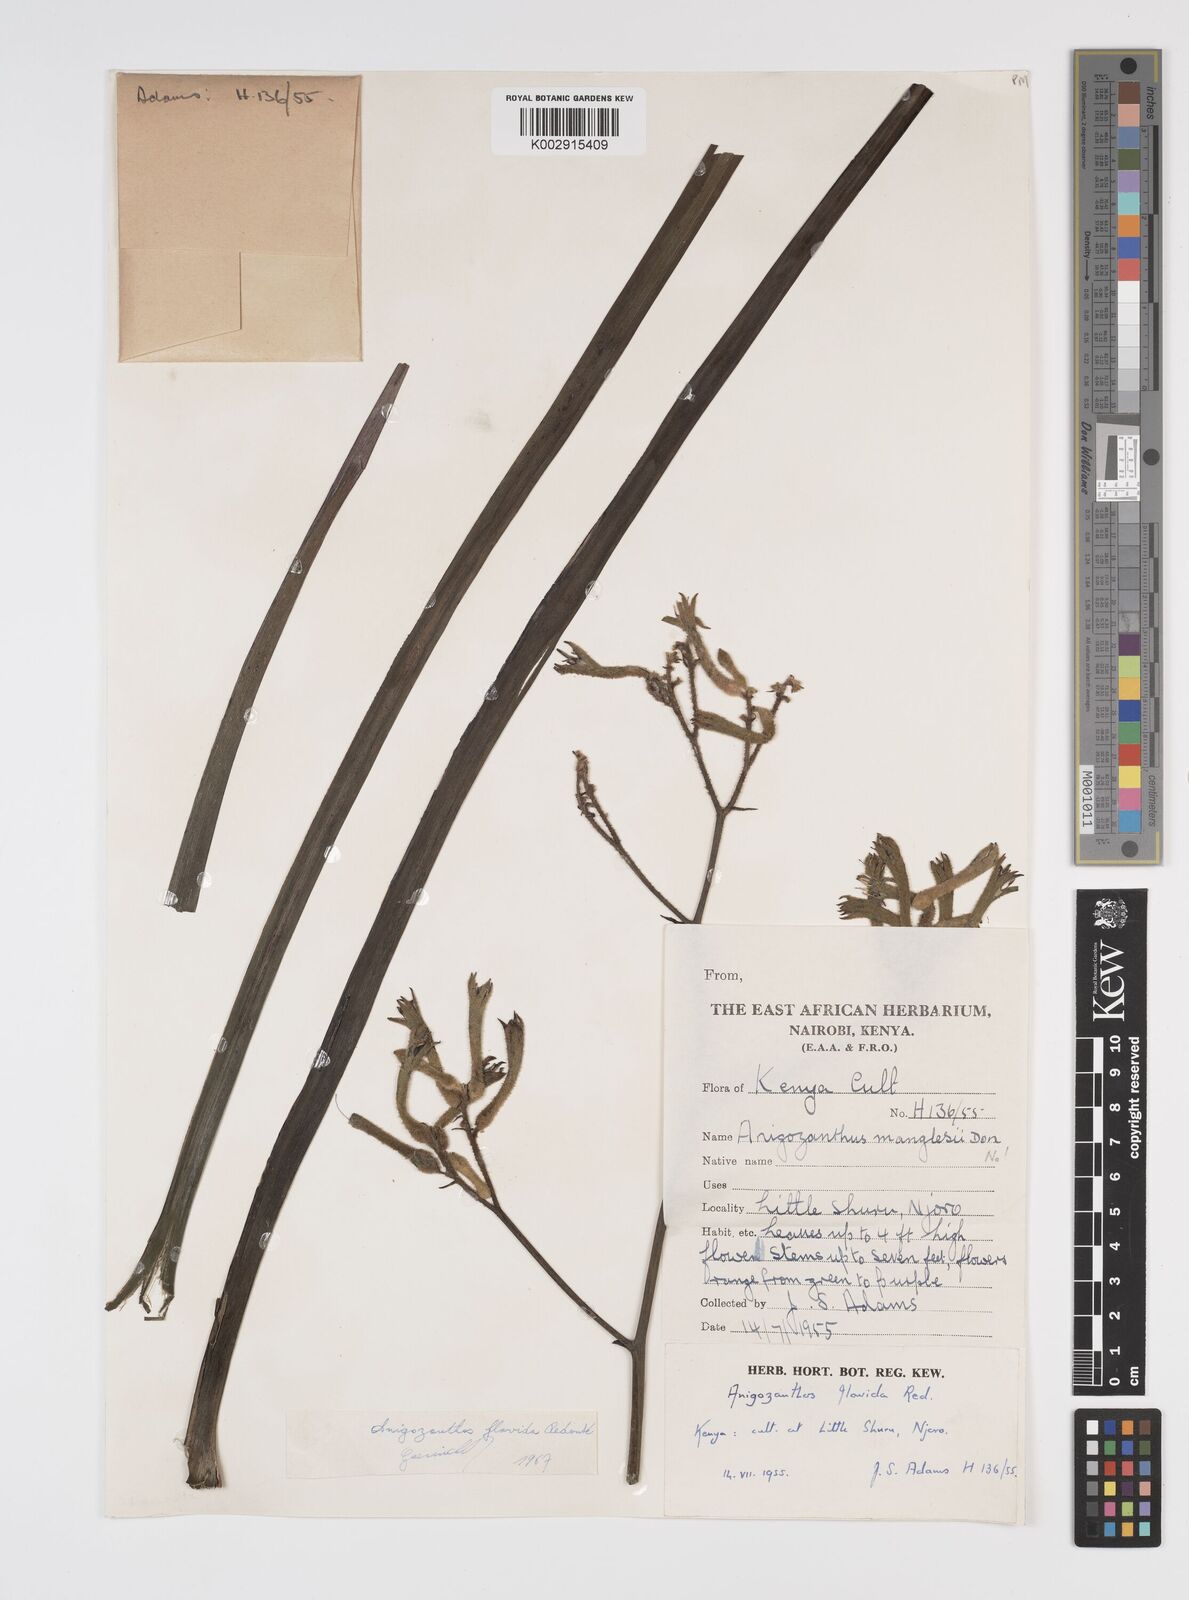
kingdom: Plantae
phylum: Tracheophyta
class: Liliopsida
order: Commelinales
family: Haemodoraceae
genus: Anigozanthos
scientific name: Anigozanthos flavidus
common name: Evergreen kangaroo-paw
